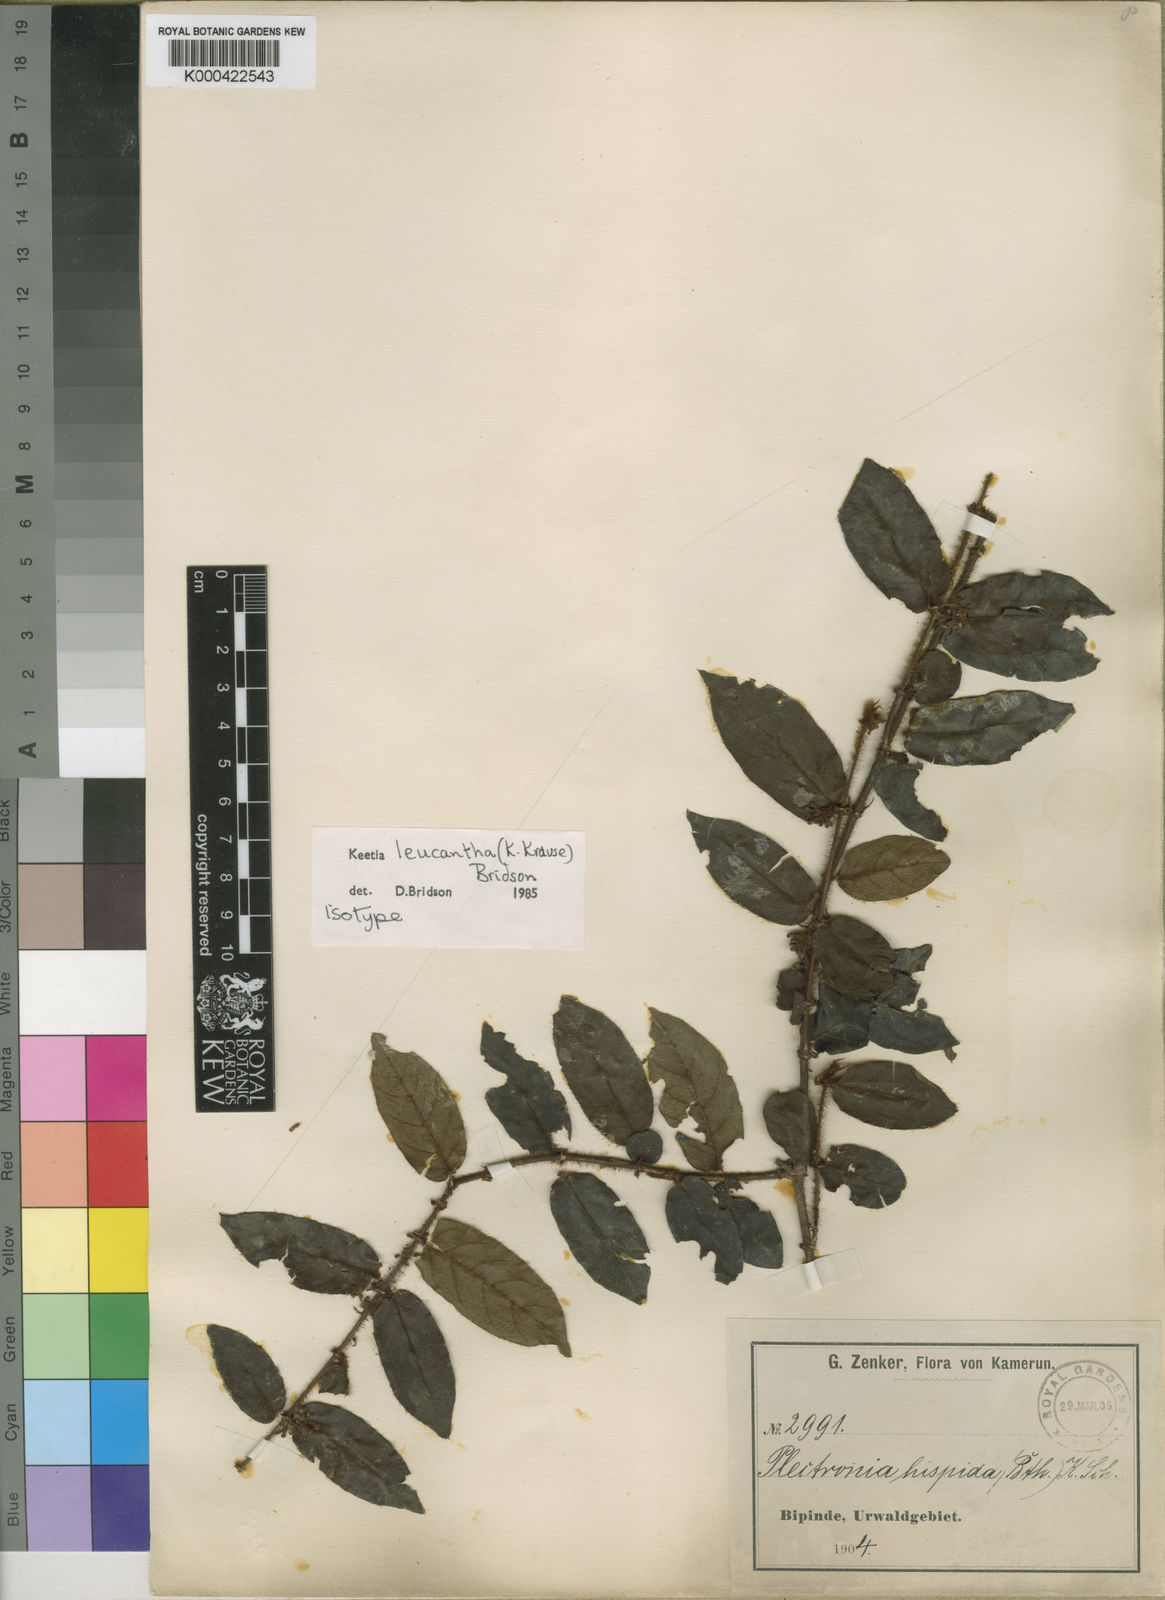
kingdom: Plantae
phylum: Tracheophyta
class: Magnoliopsida
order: Gentianales
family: Rubiaceae
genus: Keetia
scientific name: Keetia leucantha
